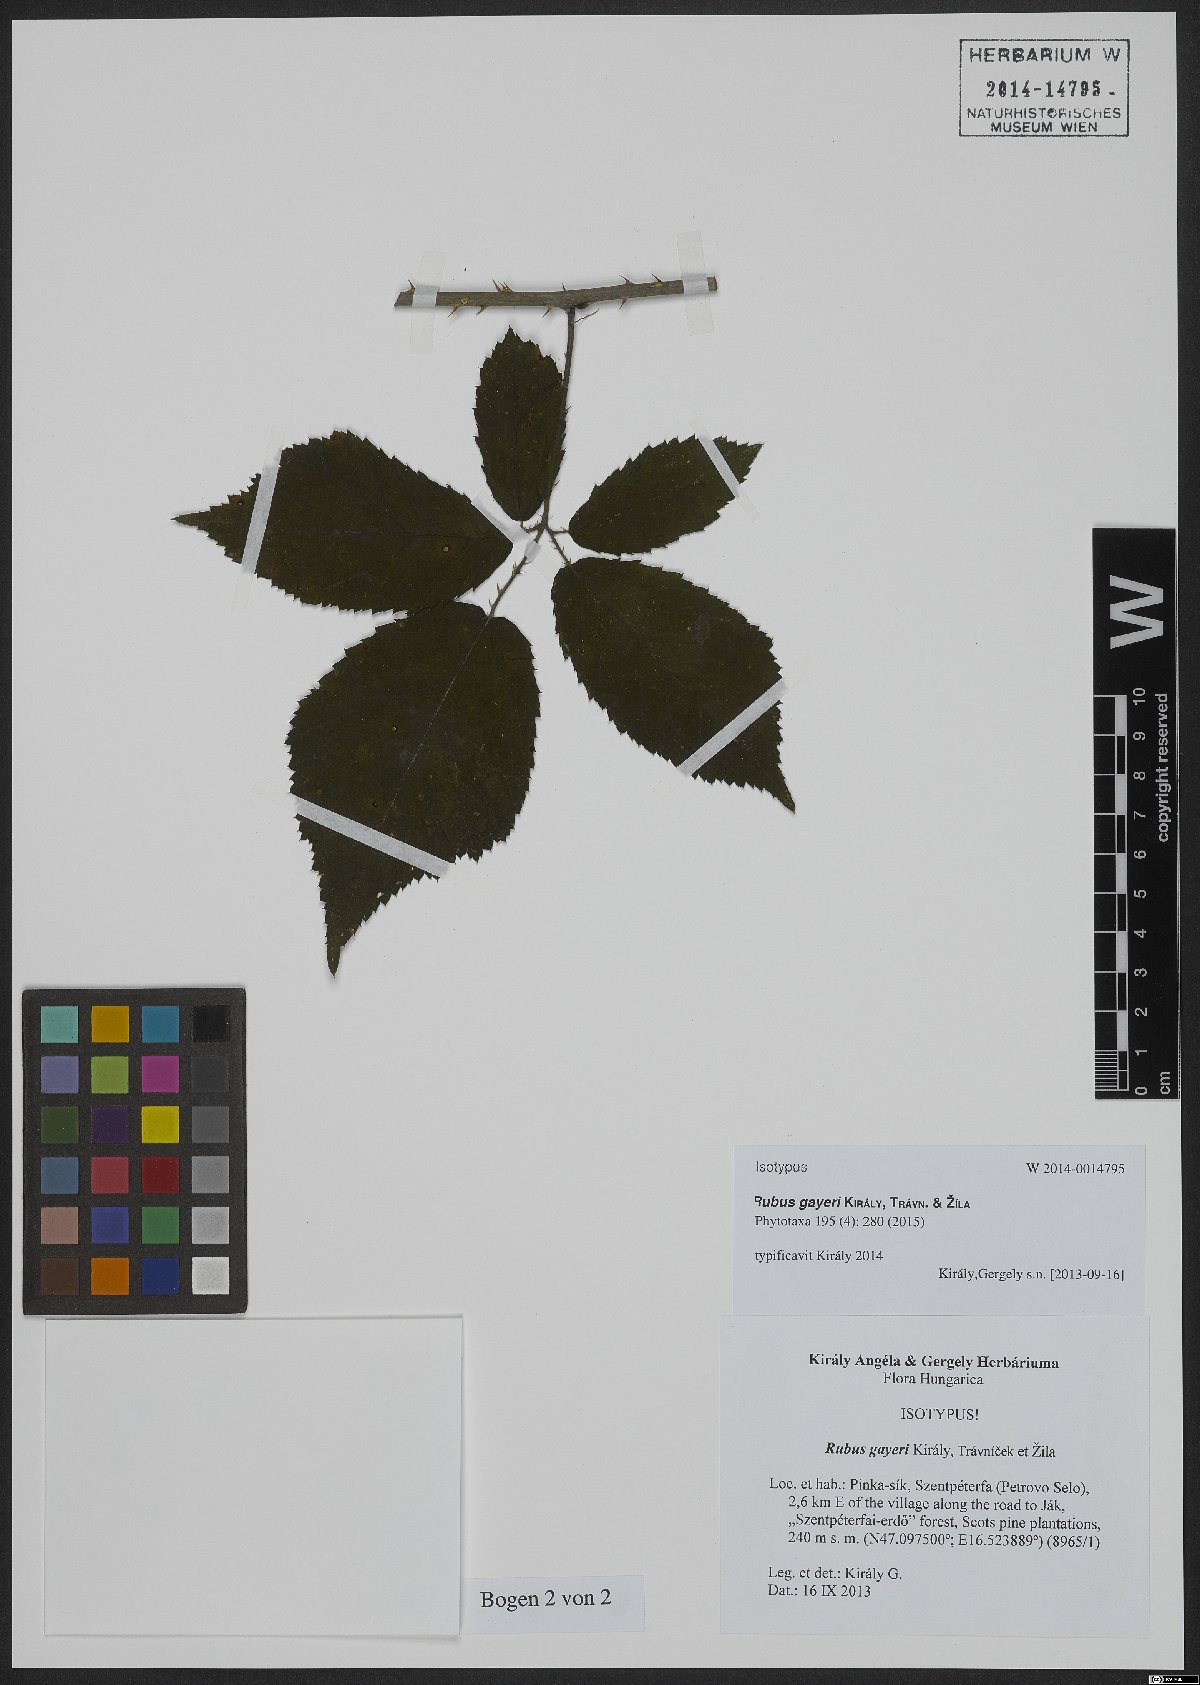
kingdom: Plantae
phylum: Tracheophyta
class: Magnoliopsida
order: Rosales
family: Rosaceae
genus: Rubus
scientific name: Rubus gayeri
